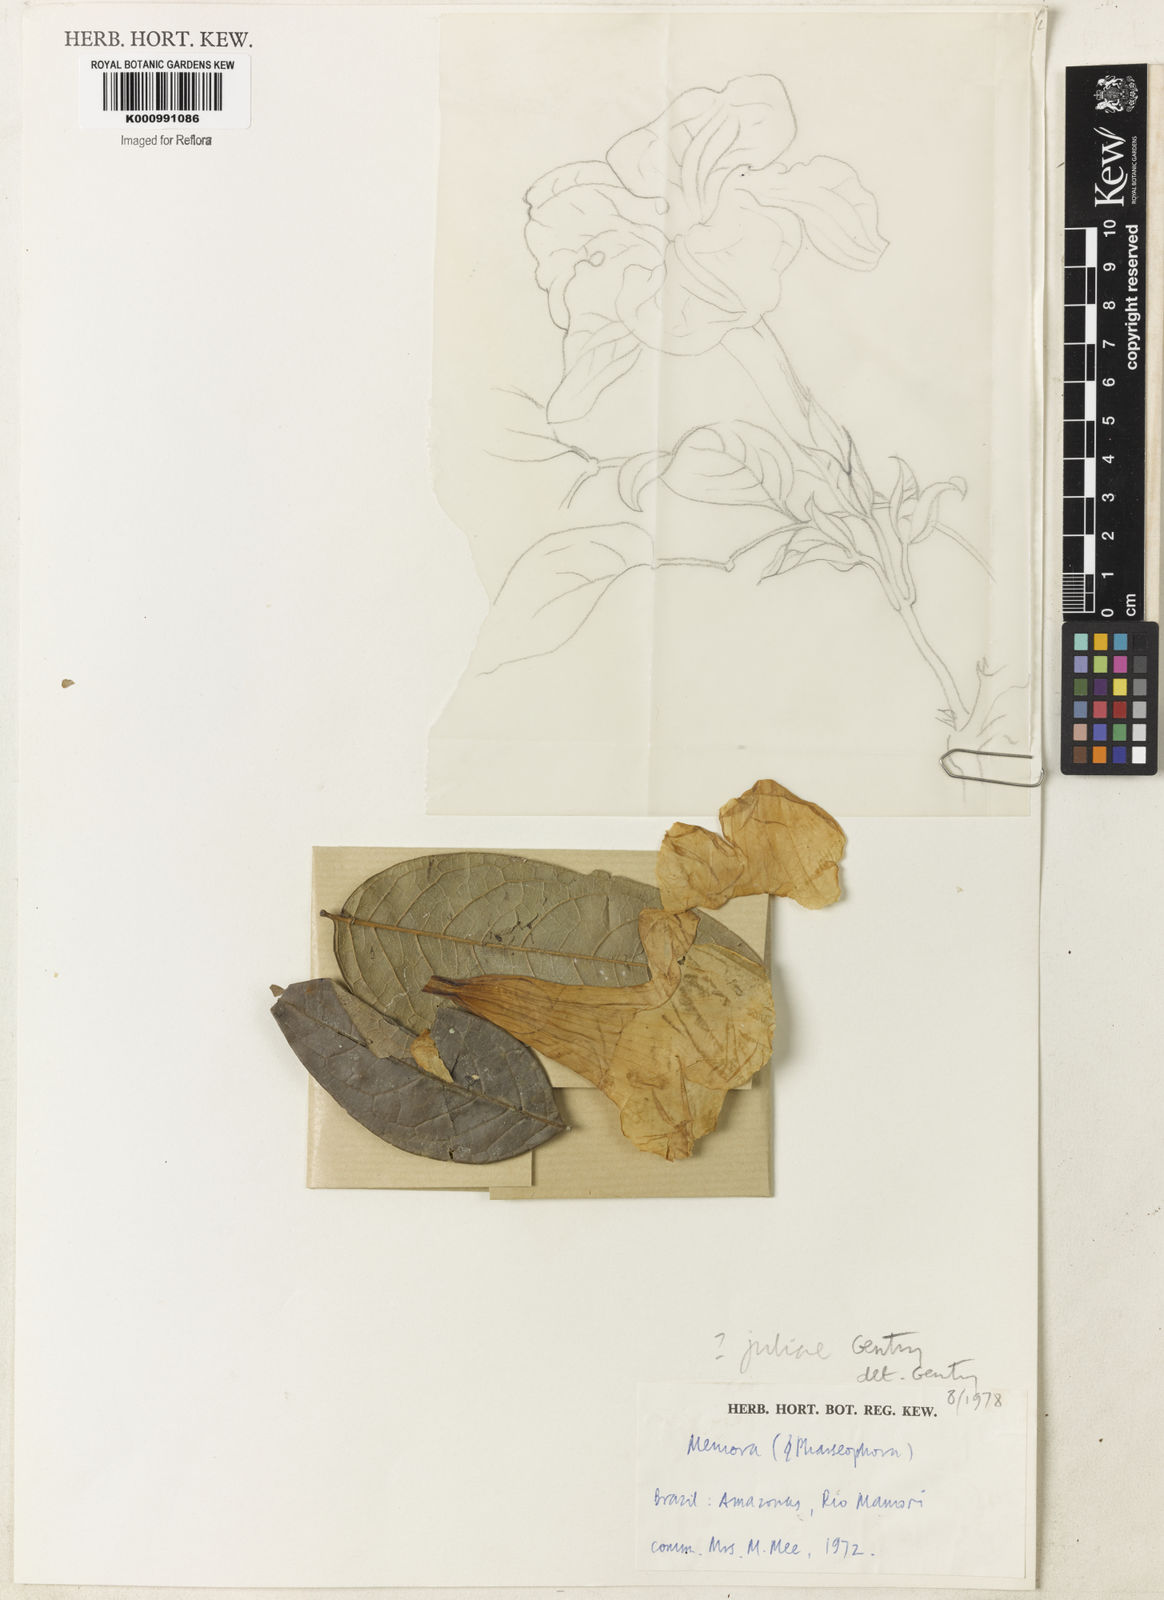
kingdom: Plantae
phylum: Tracheophyta
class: Magnoliopsida
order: Lamiales
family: Bignoniaceae
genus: Adenocalymma
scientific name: Adenocalymma juliae
